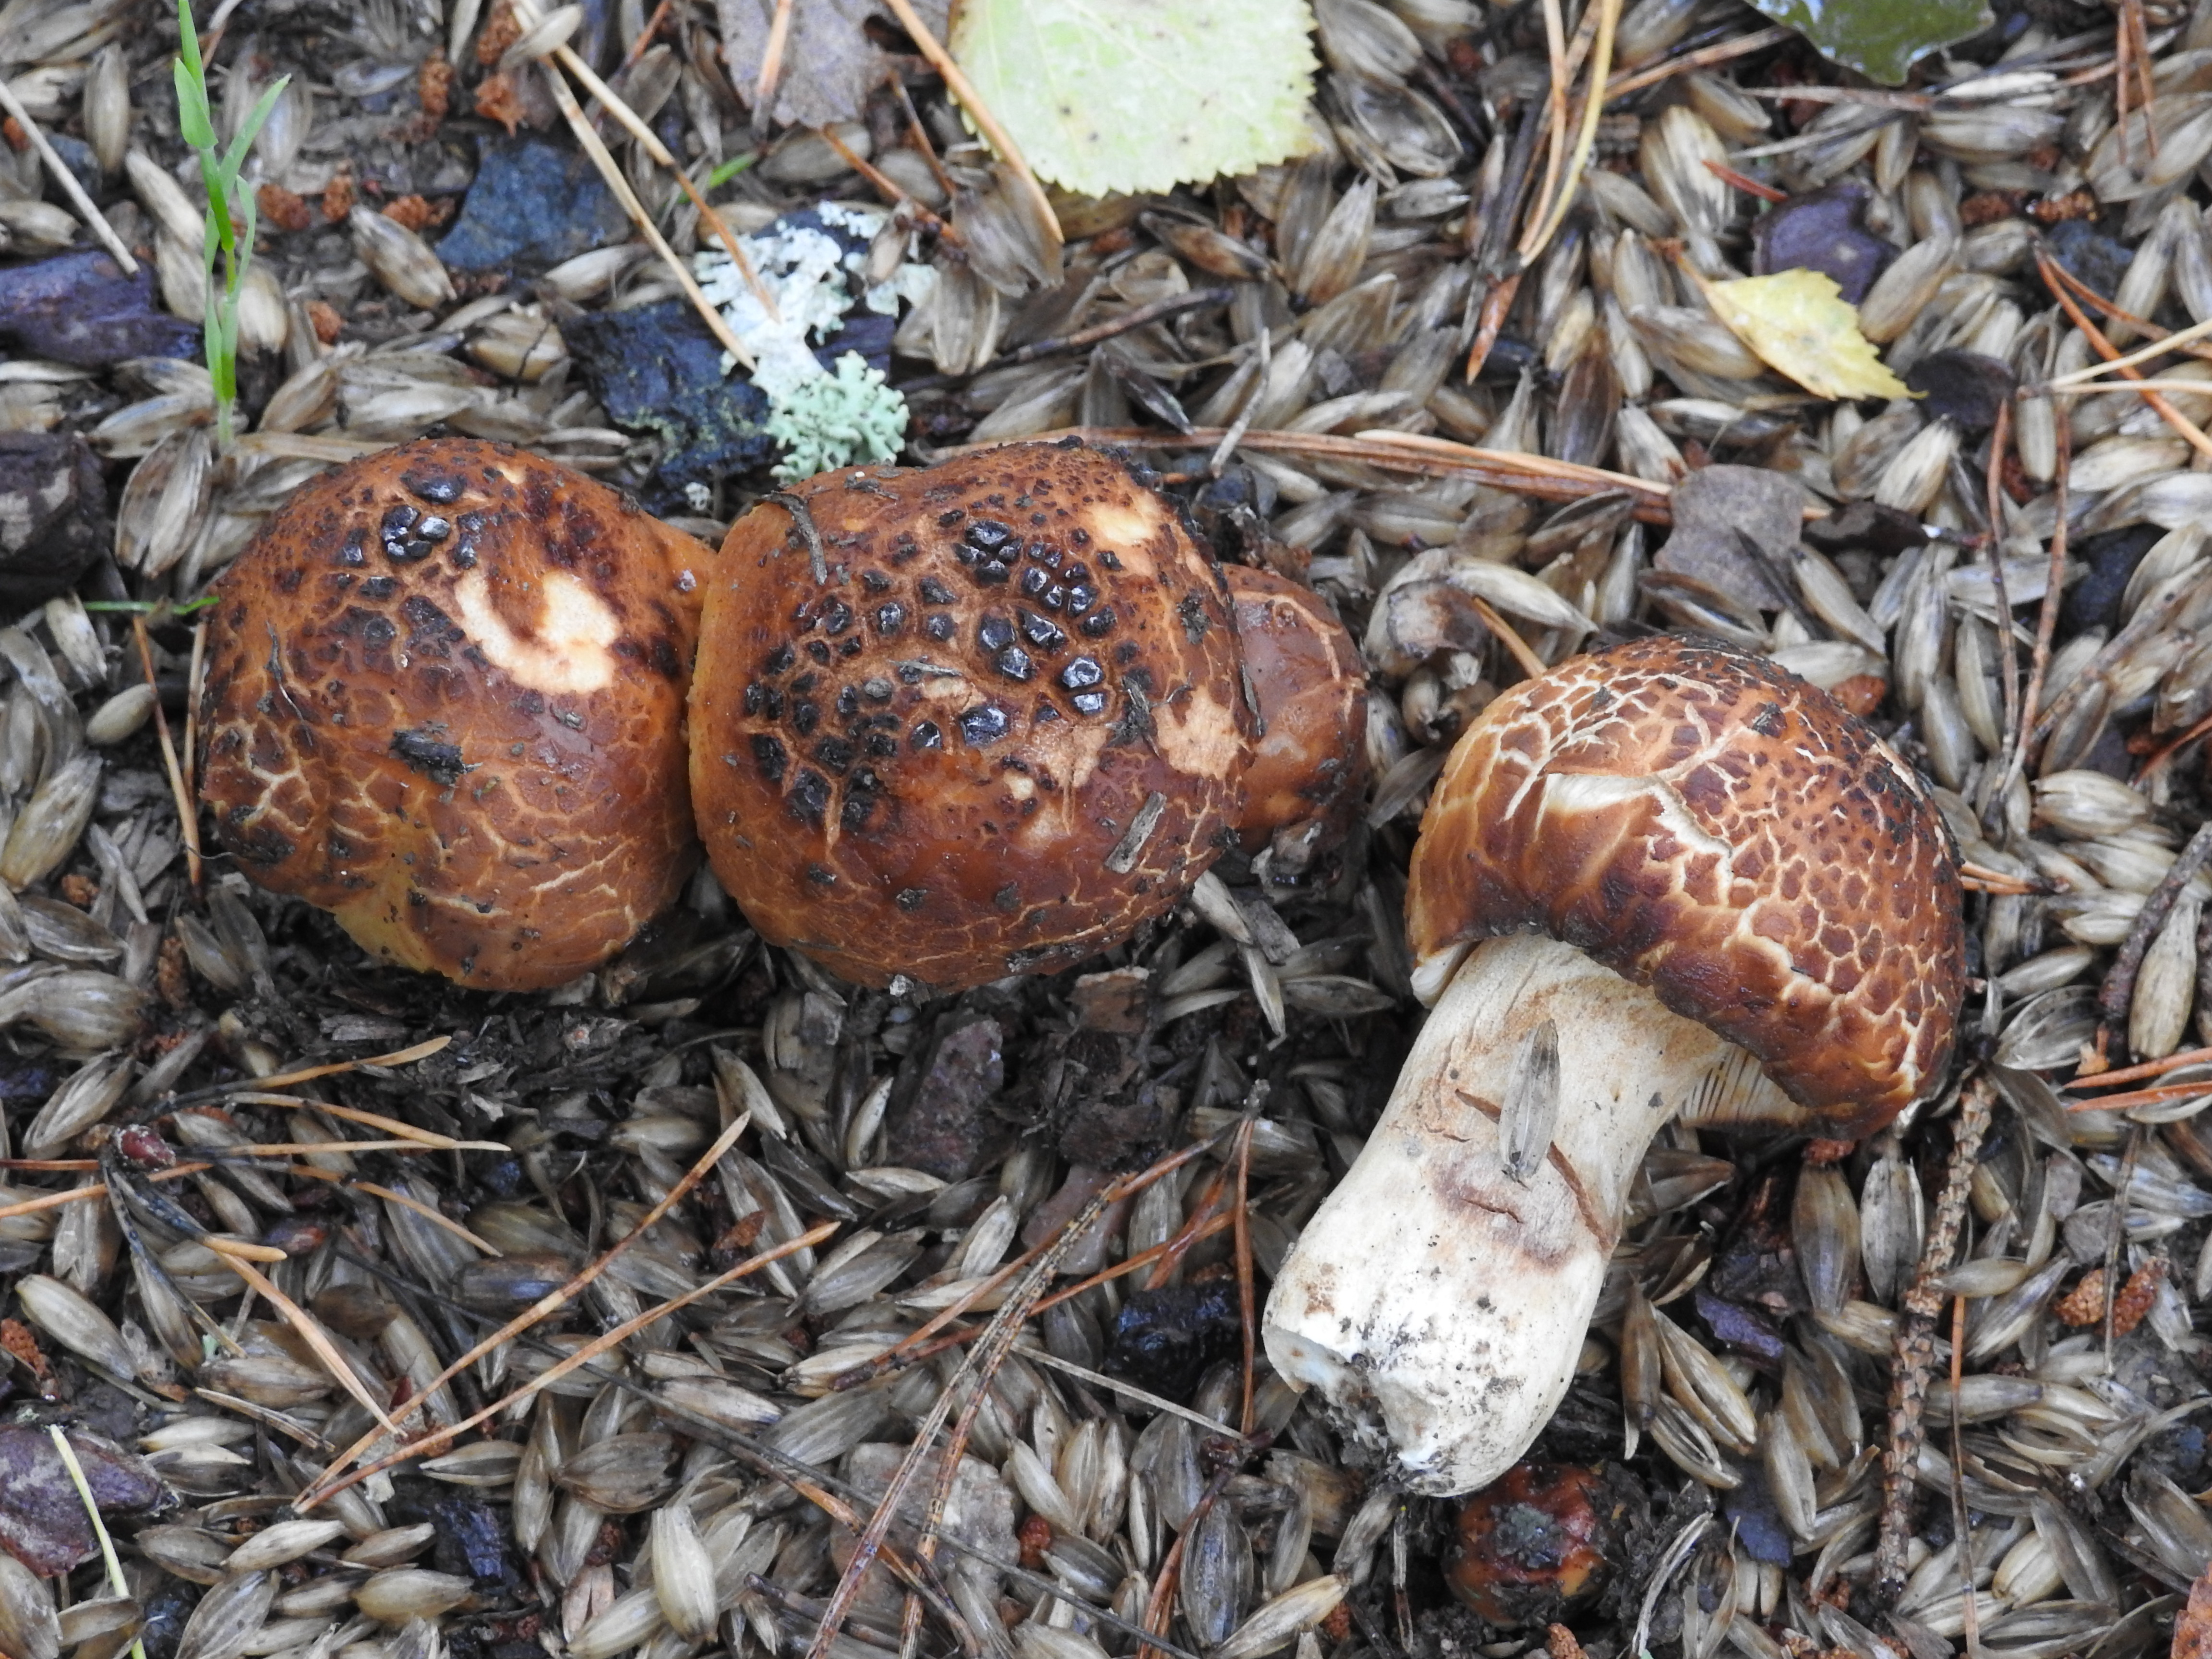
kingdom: Fungi
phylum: Basidiomycota
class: Agaricomycetes
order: Russulales
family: Russulaceae
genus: Russula
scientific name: Russula foetens
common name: Foetid russula
